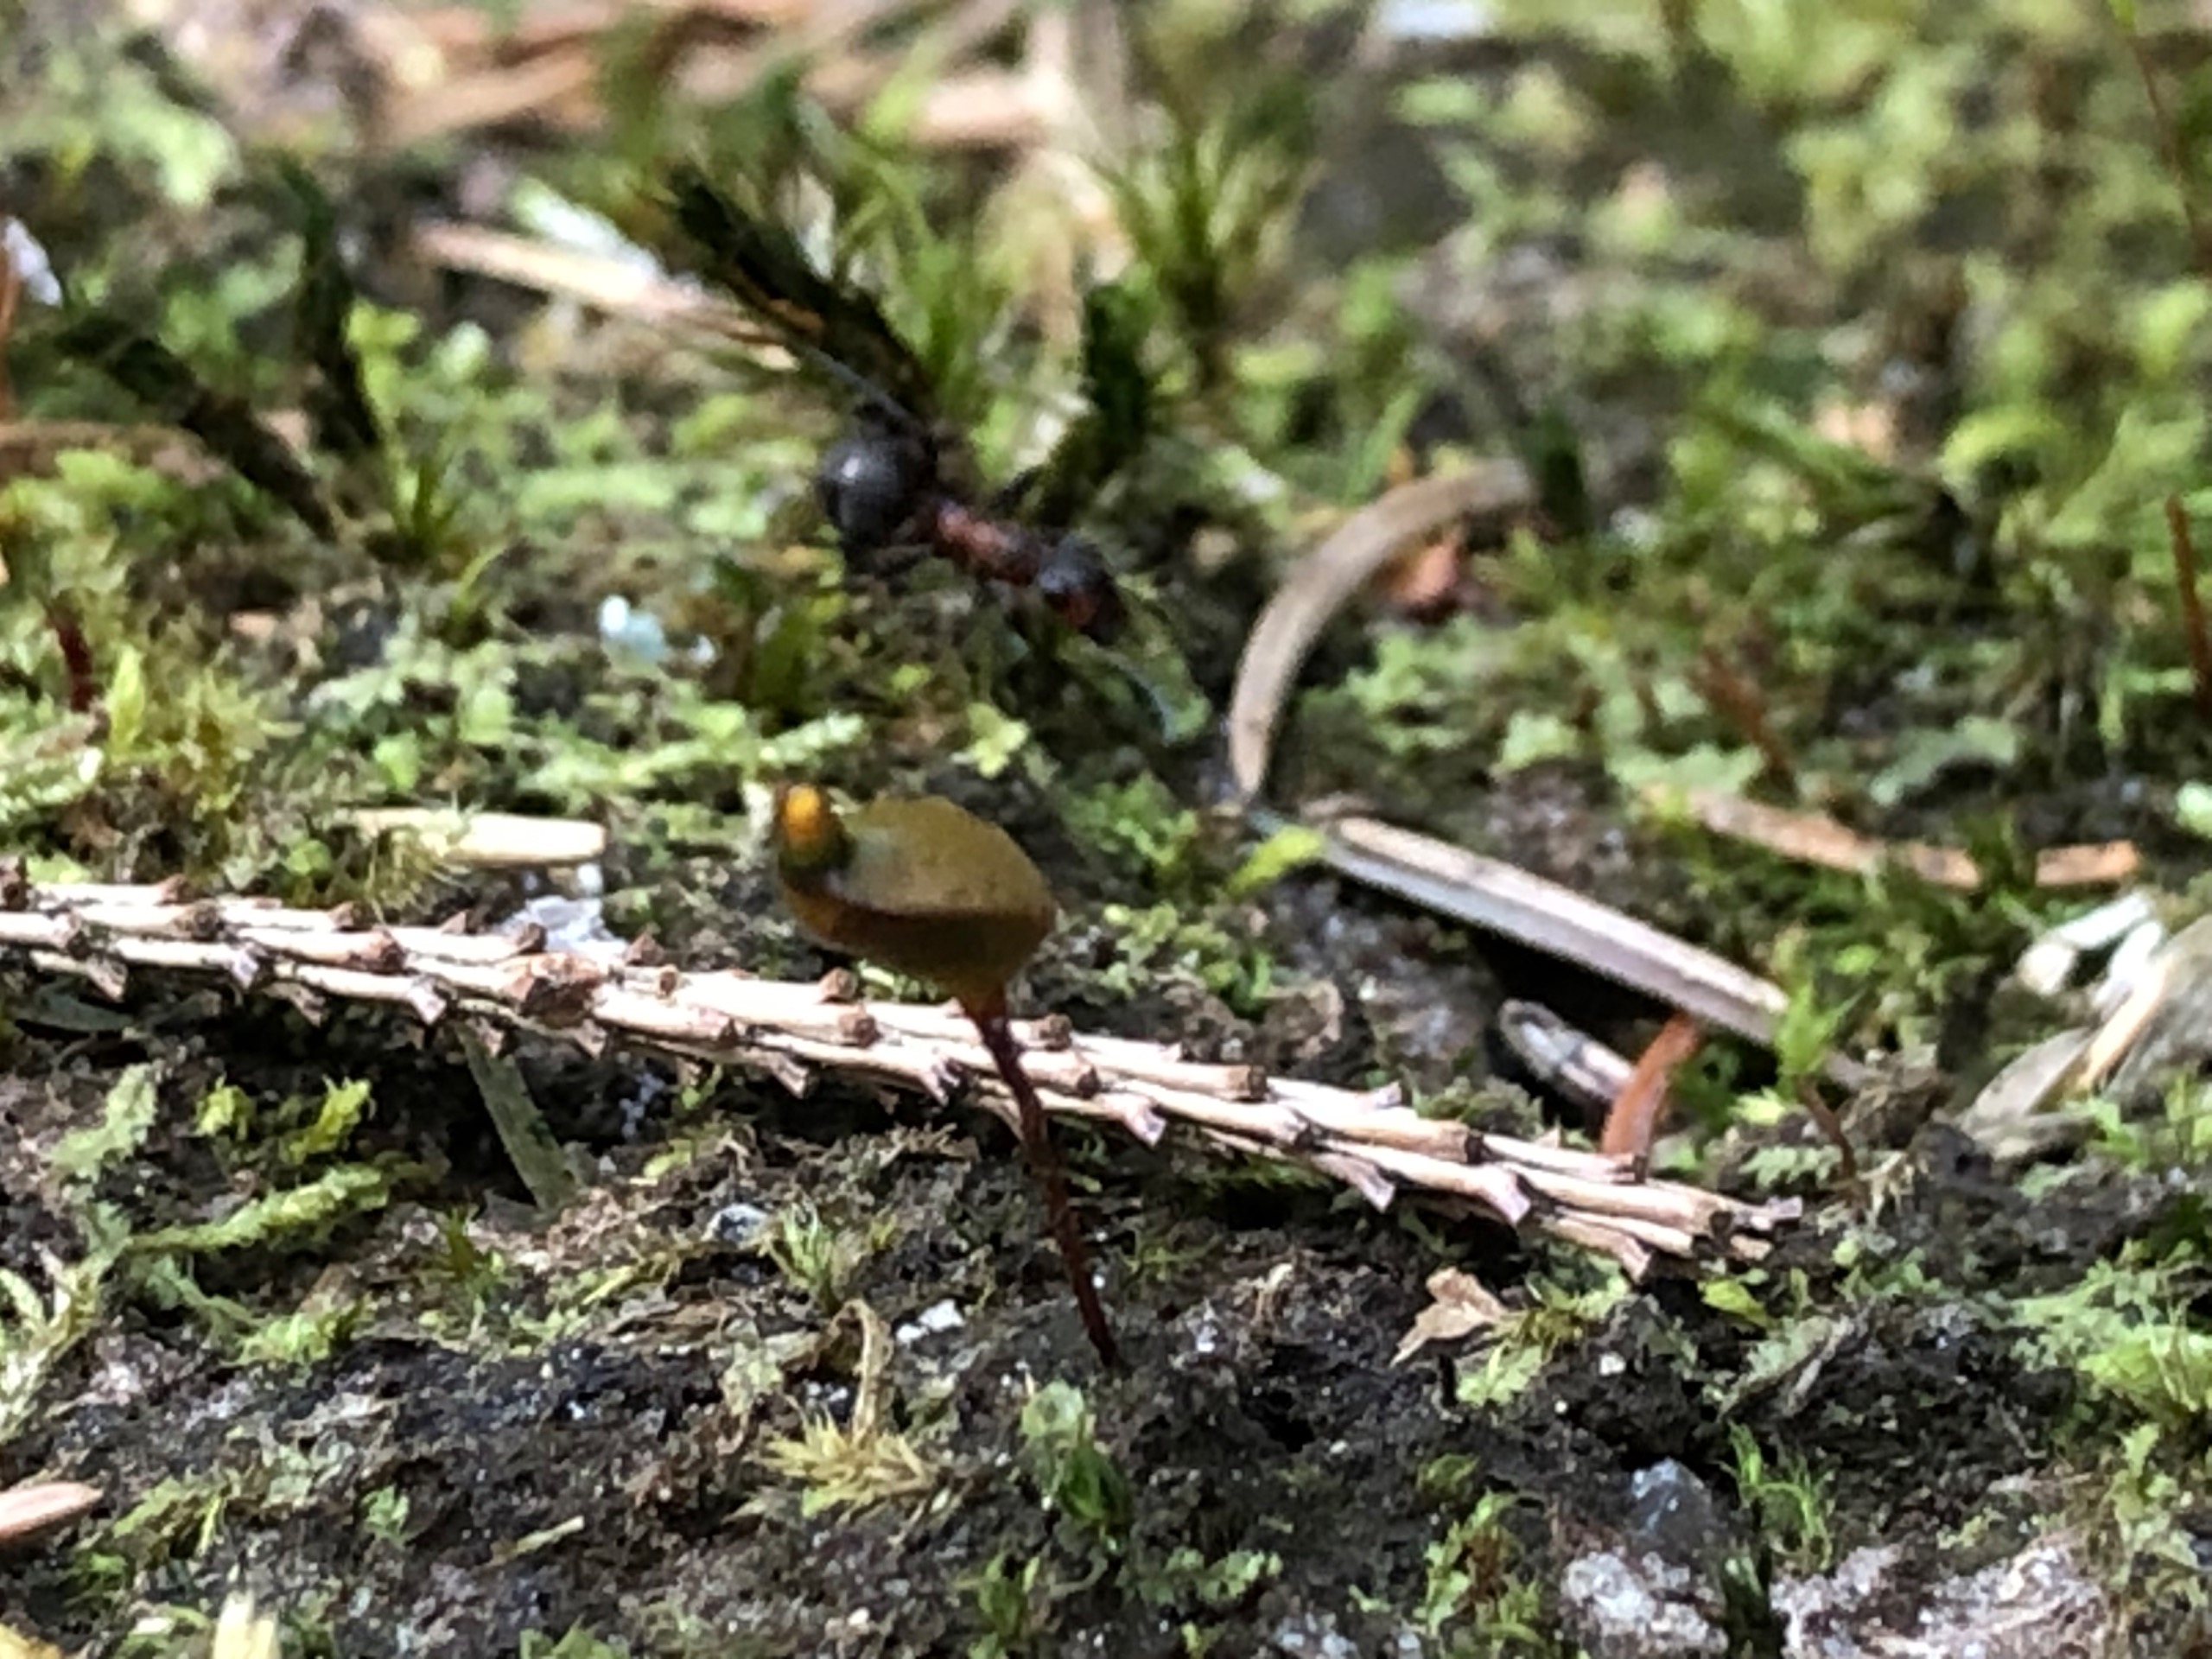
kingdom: Plantae
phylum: Bryophyta
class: Bryopsida
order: Buxbaumiales
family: Buxbaumiaceae
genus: Buxbaumia
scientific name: Buxbaumia aphylla
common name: Rundkapslet buxbaumia
